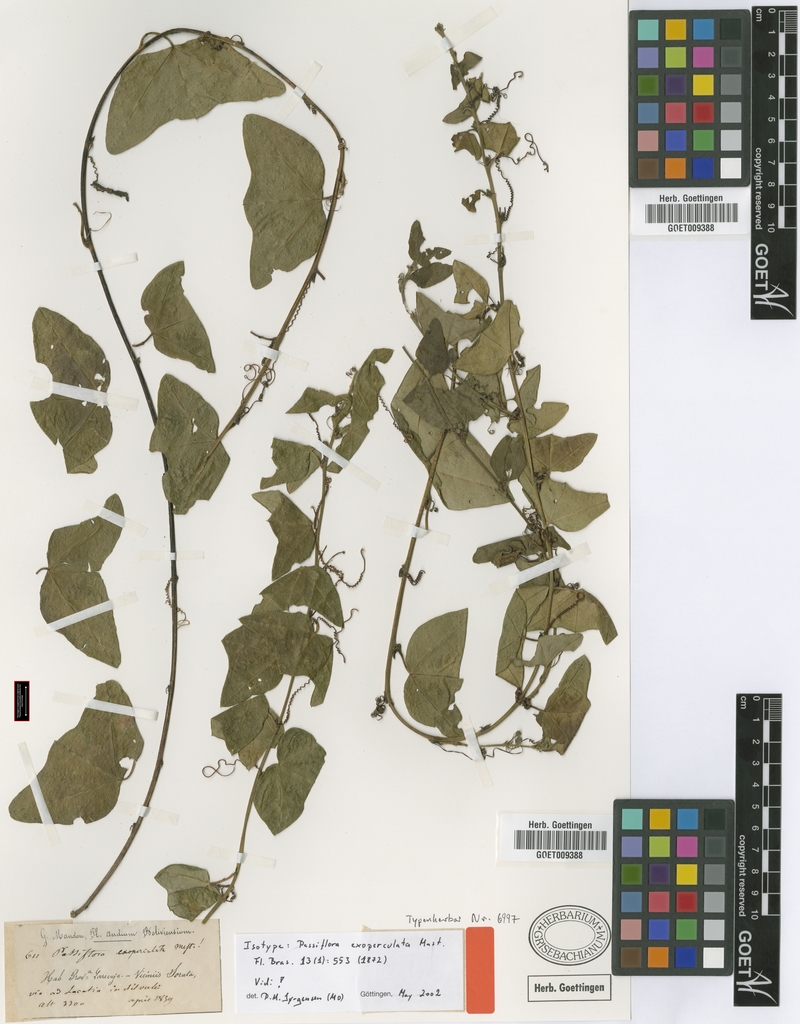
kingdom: Plantae
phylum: Tracheophyta
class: Magnoliopsida
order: Malpighiales
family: Passifloraceae
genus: Passiflora
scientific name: Passiflora exoperculata
